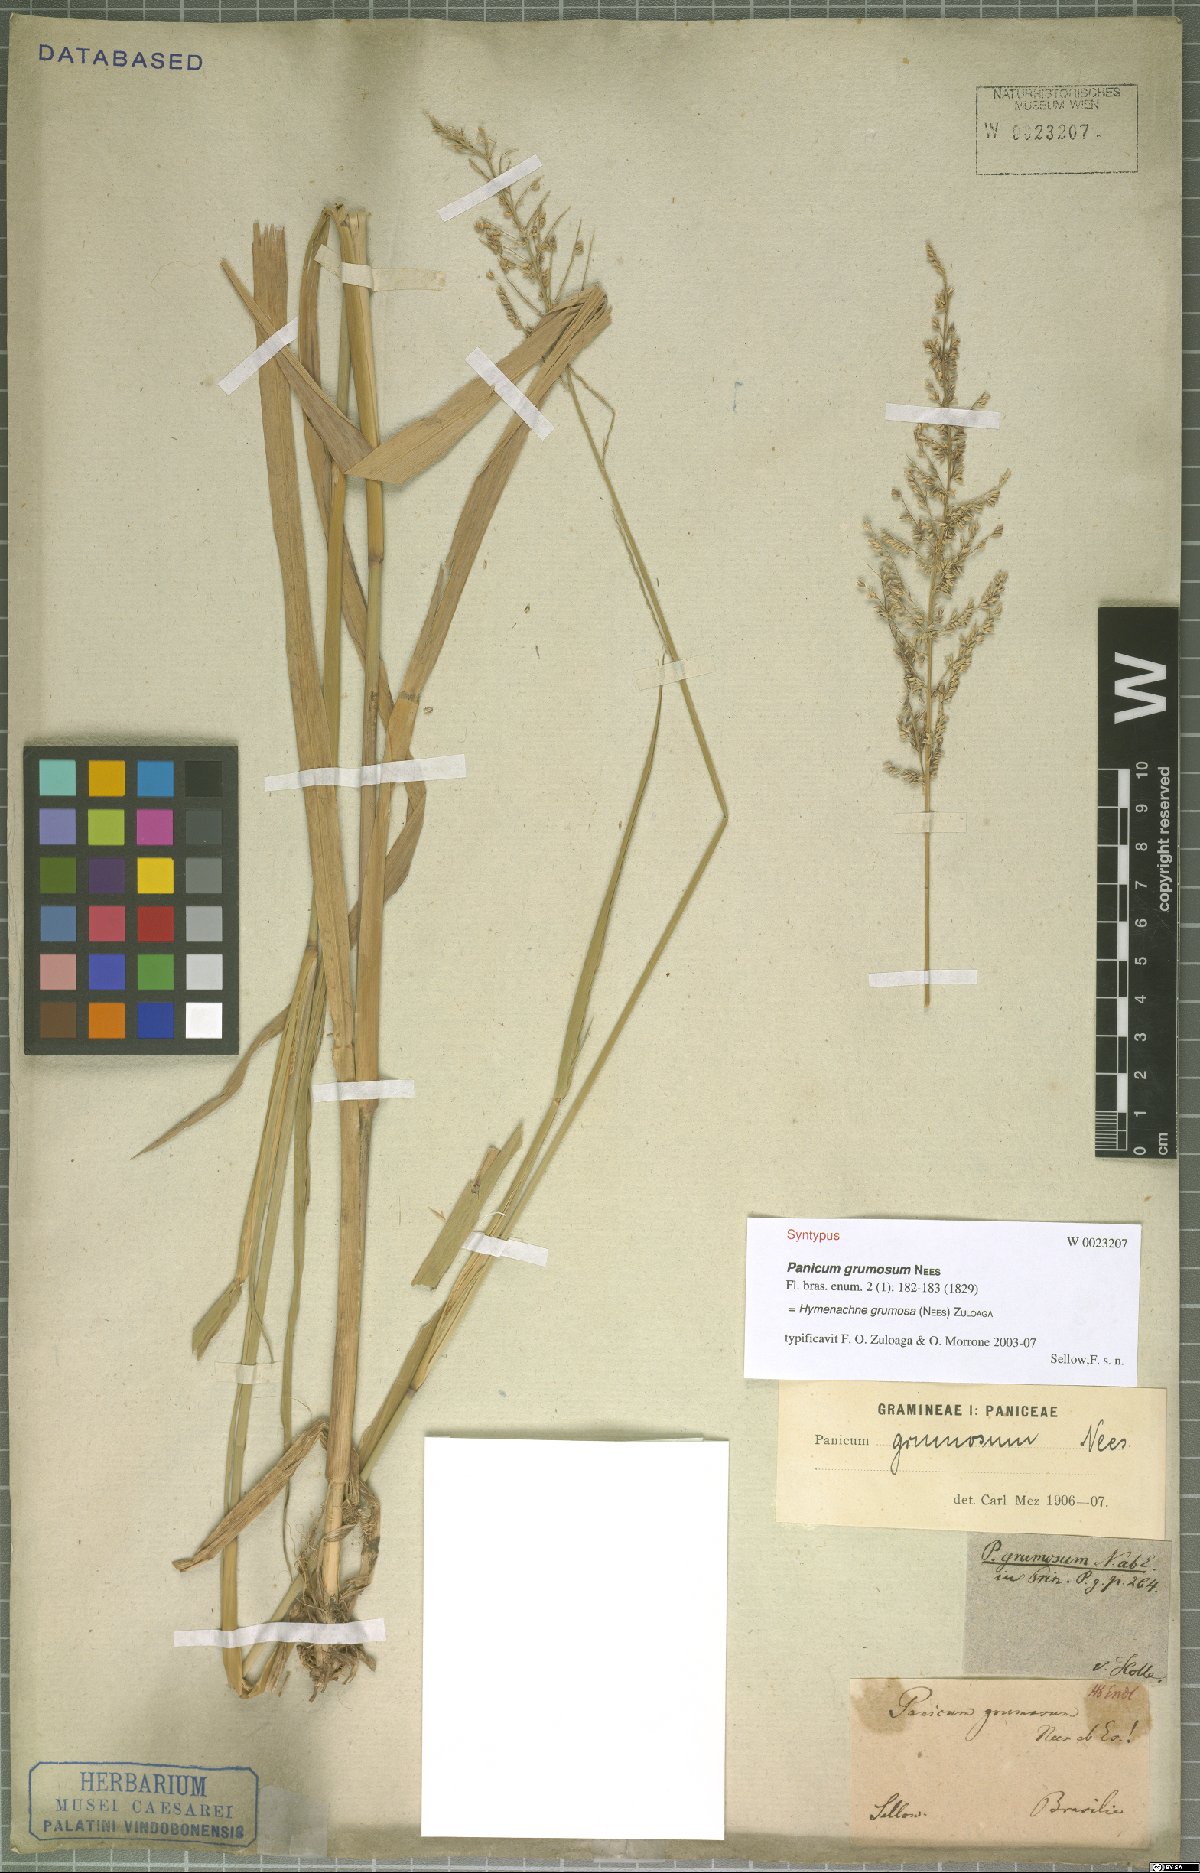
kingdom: Plantae
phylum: Tracheophyta
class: Liliopsida
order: Poales
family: Poaceae
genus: Hymenachne
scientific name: Hymenachne grumosa
